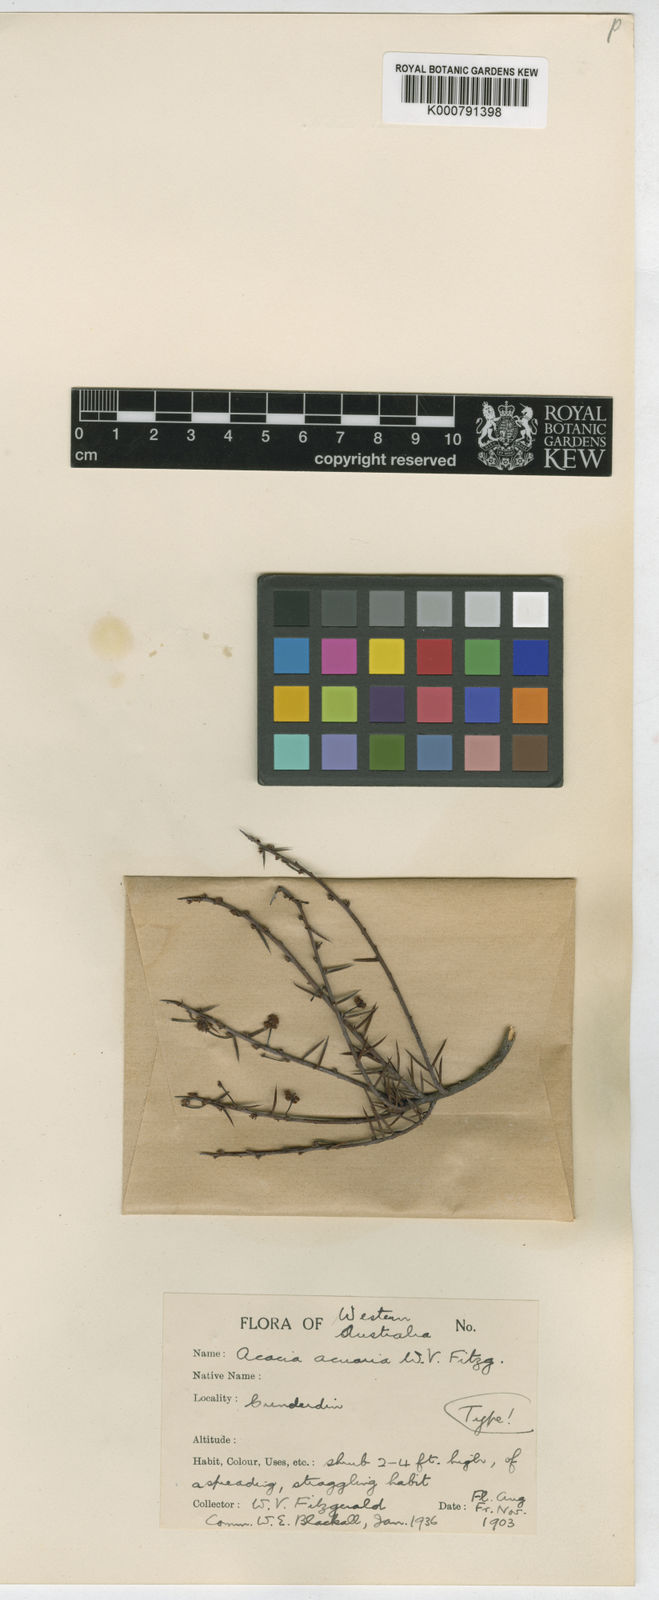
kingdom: Plantae
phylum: Tracheophyta
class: Magnoliopsida
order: Fabales
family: Fabaceae
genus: Acacia
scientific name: Acacia acuaria
